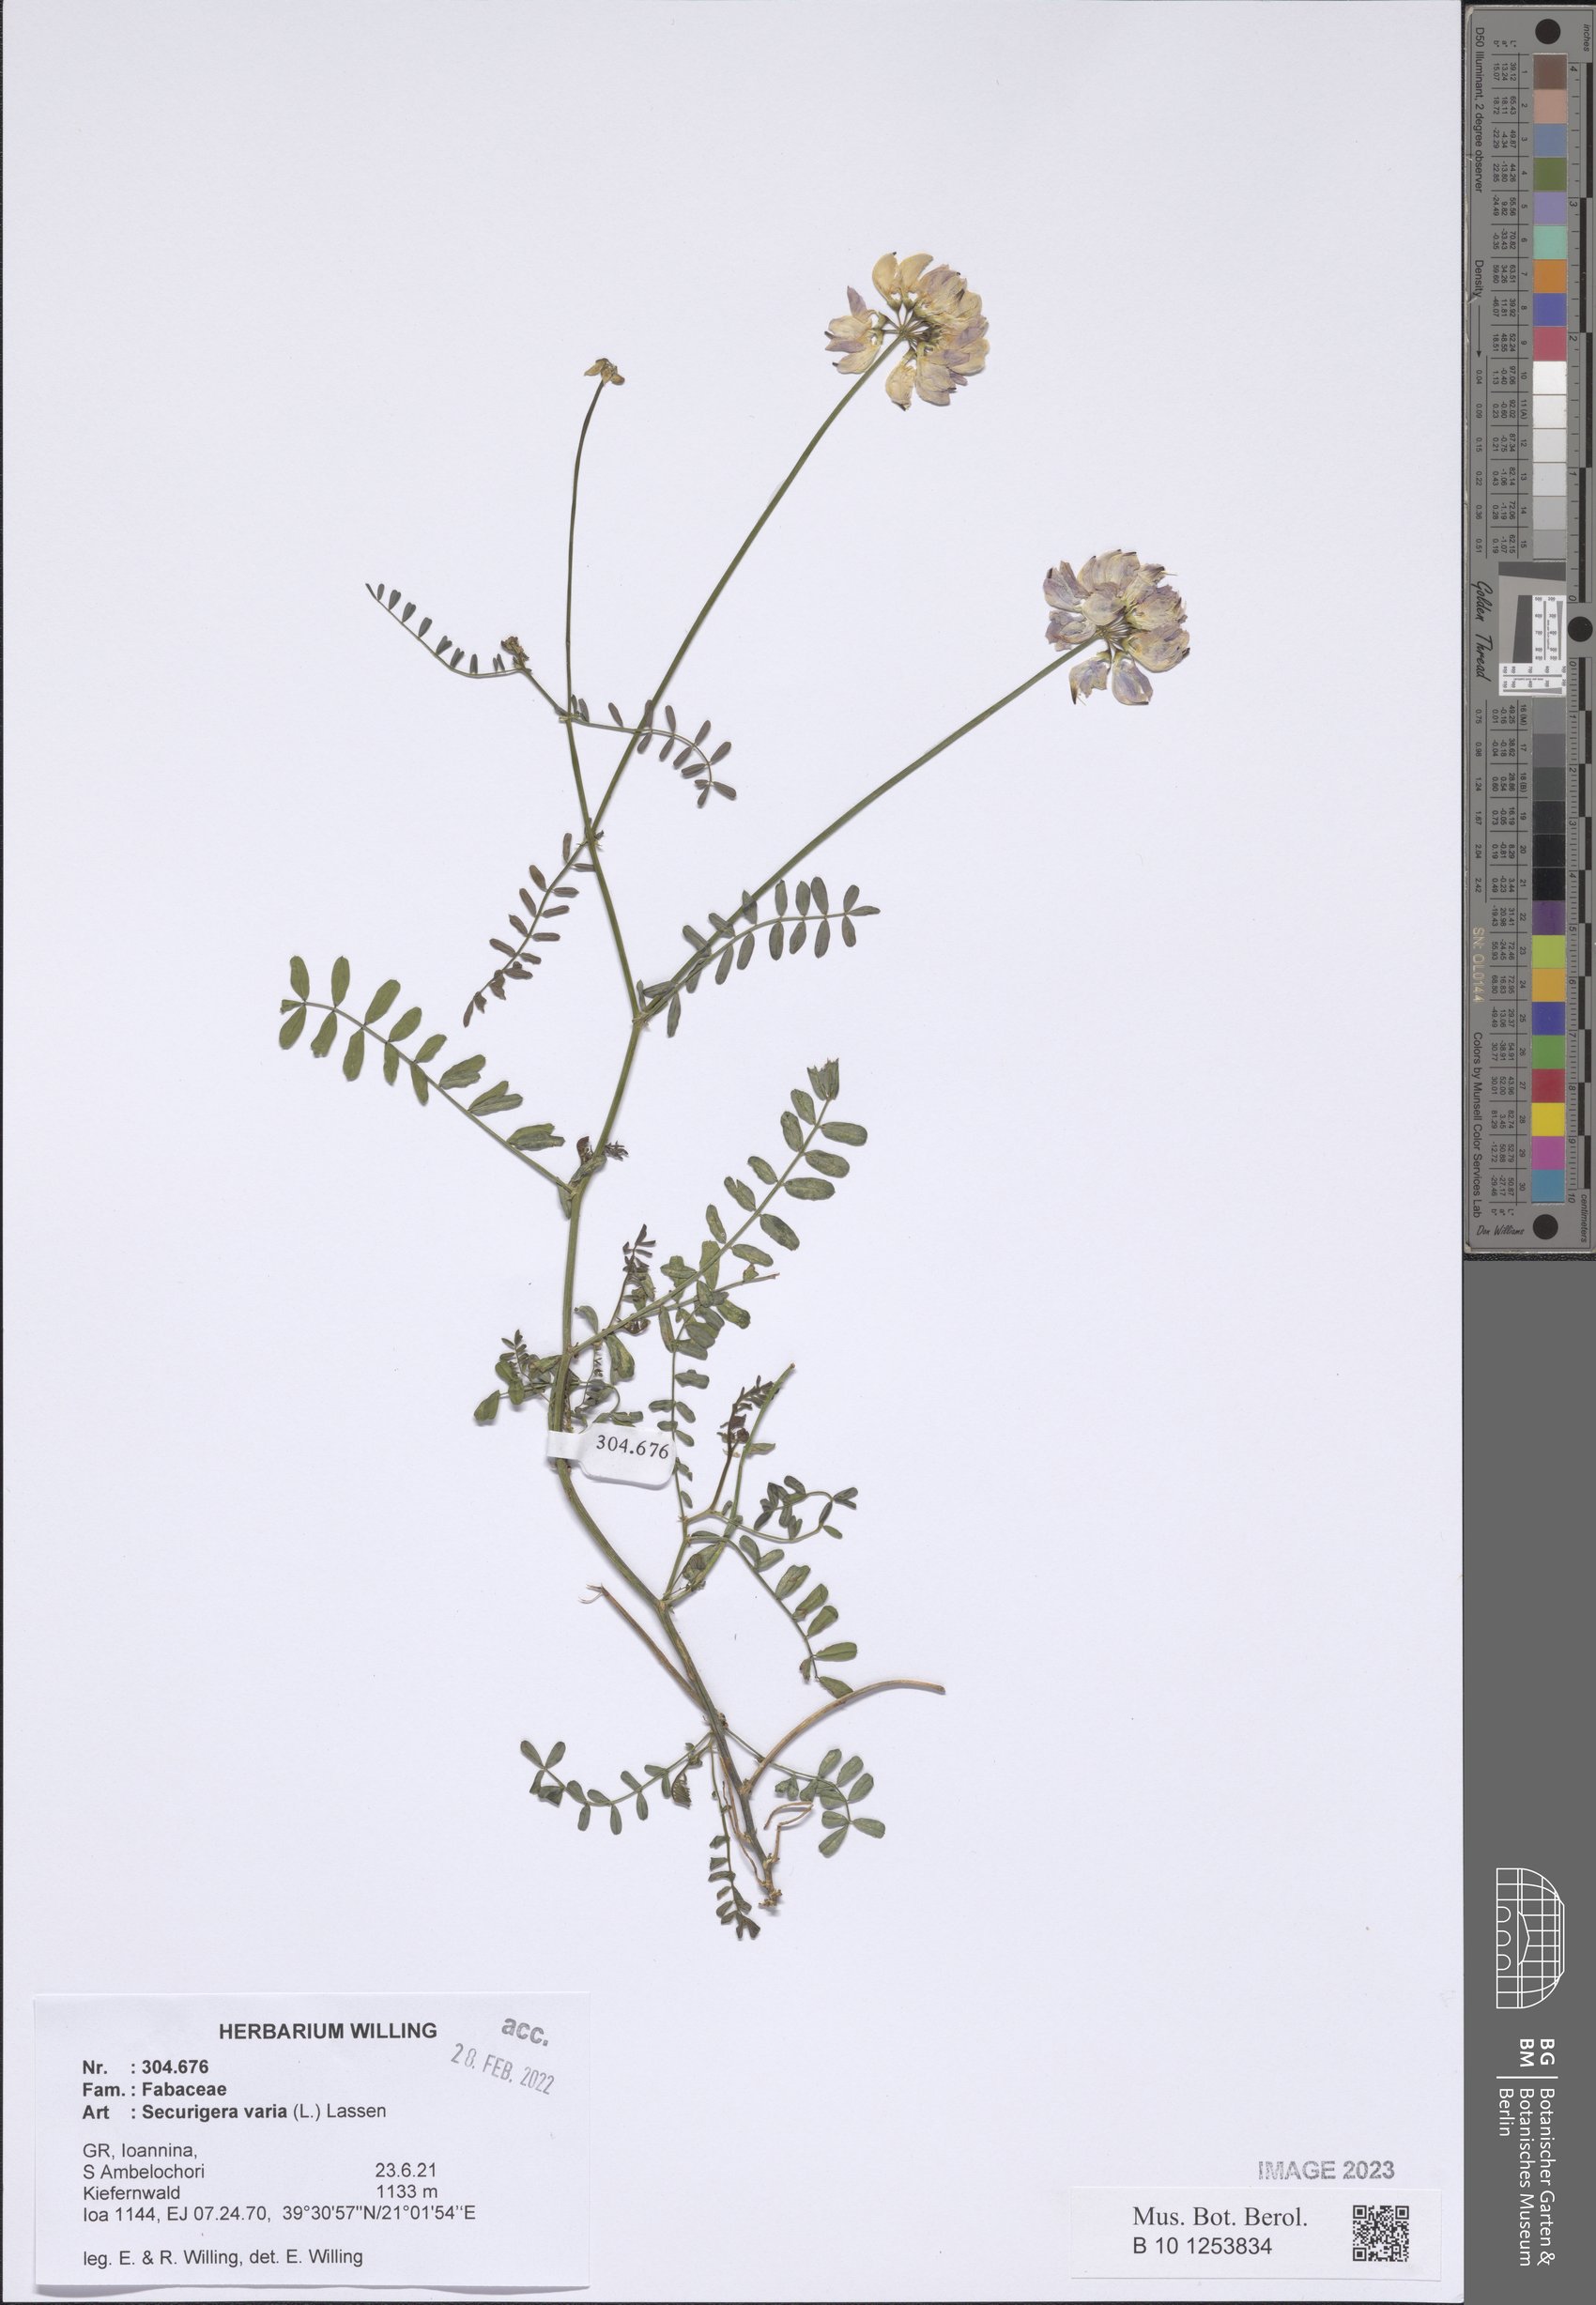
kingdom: Plantae
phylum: Tracheophyta
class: Magnoliopsida
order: Fabales
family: Fabaceae
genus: Coronilla
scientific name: Coronilla varia
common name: Crownvetch
